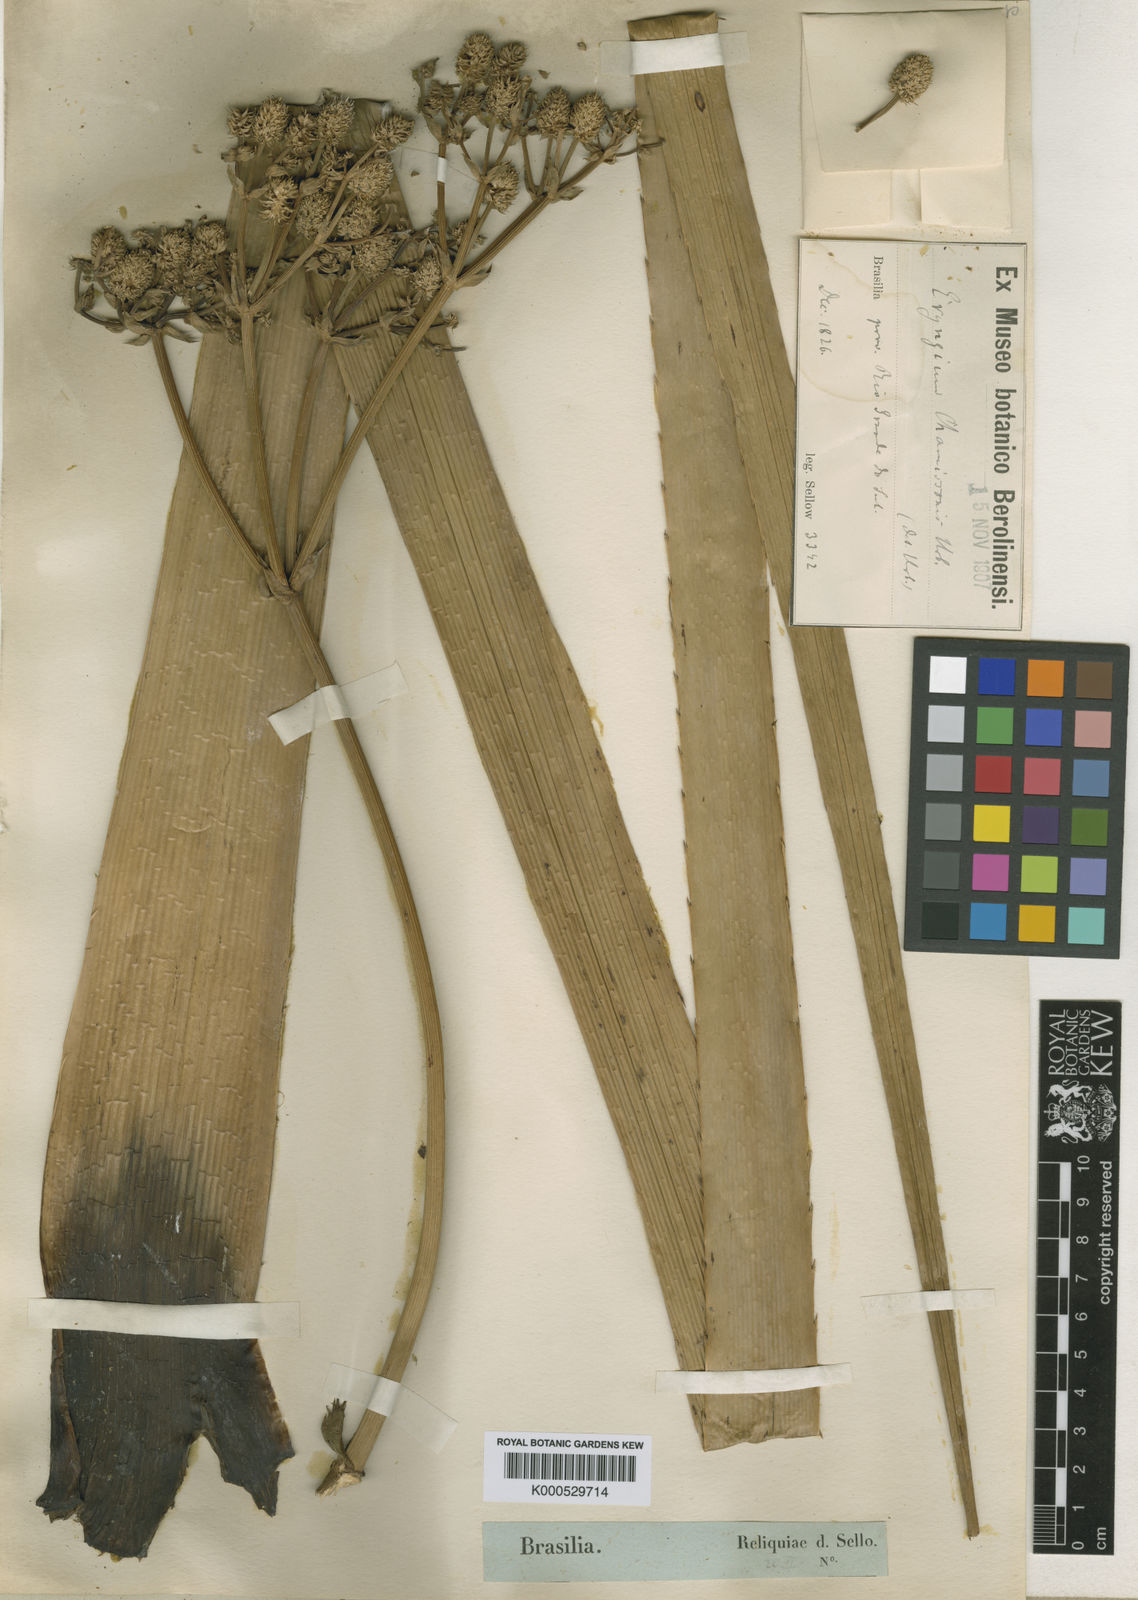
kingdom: Plantae
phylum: Tracheophyta
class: Magnoliopsida
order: Apiales
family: Apiaceae
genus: Eryngium
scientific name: Eryngium chamissonis
